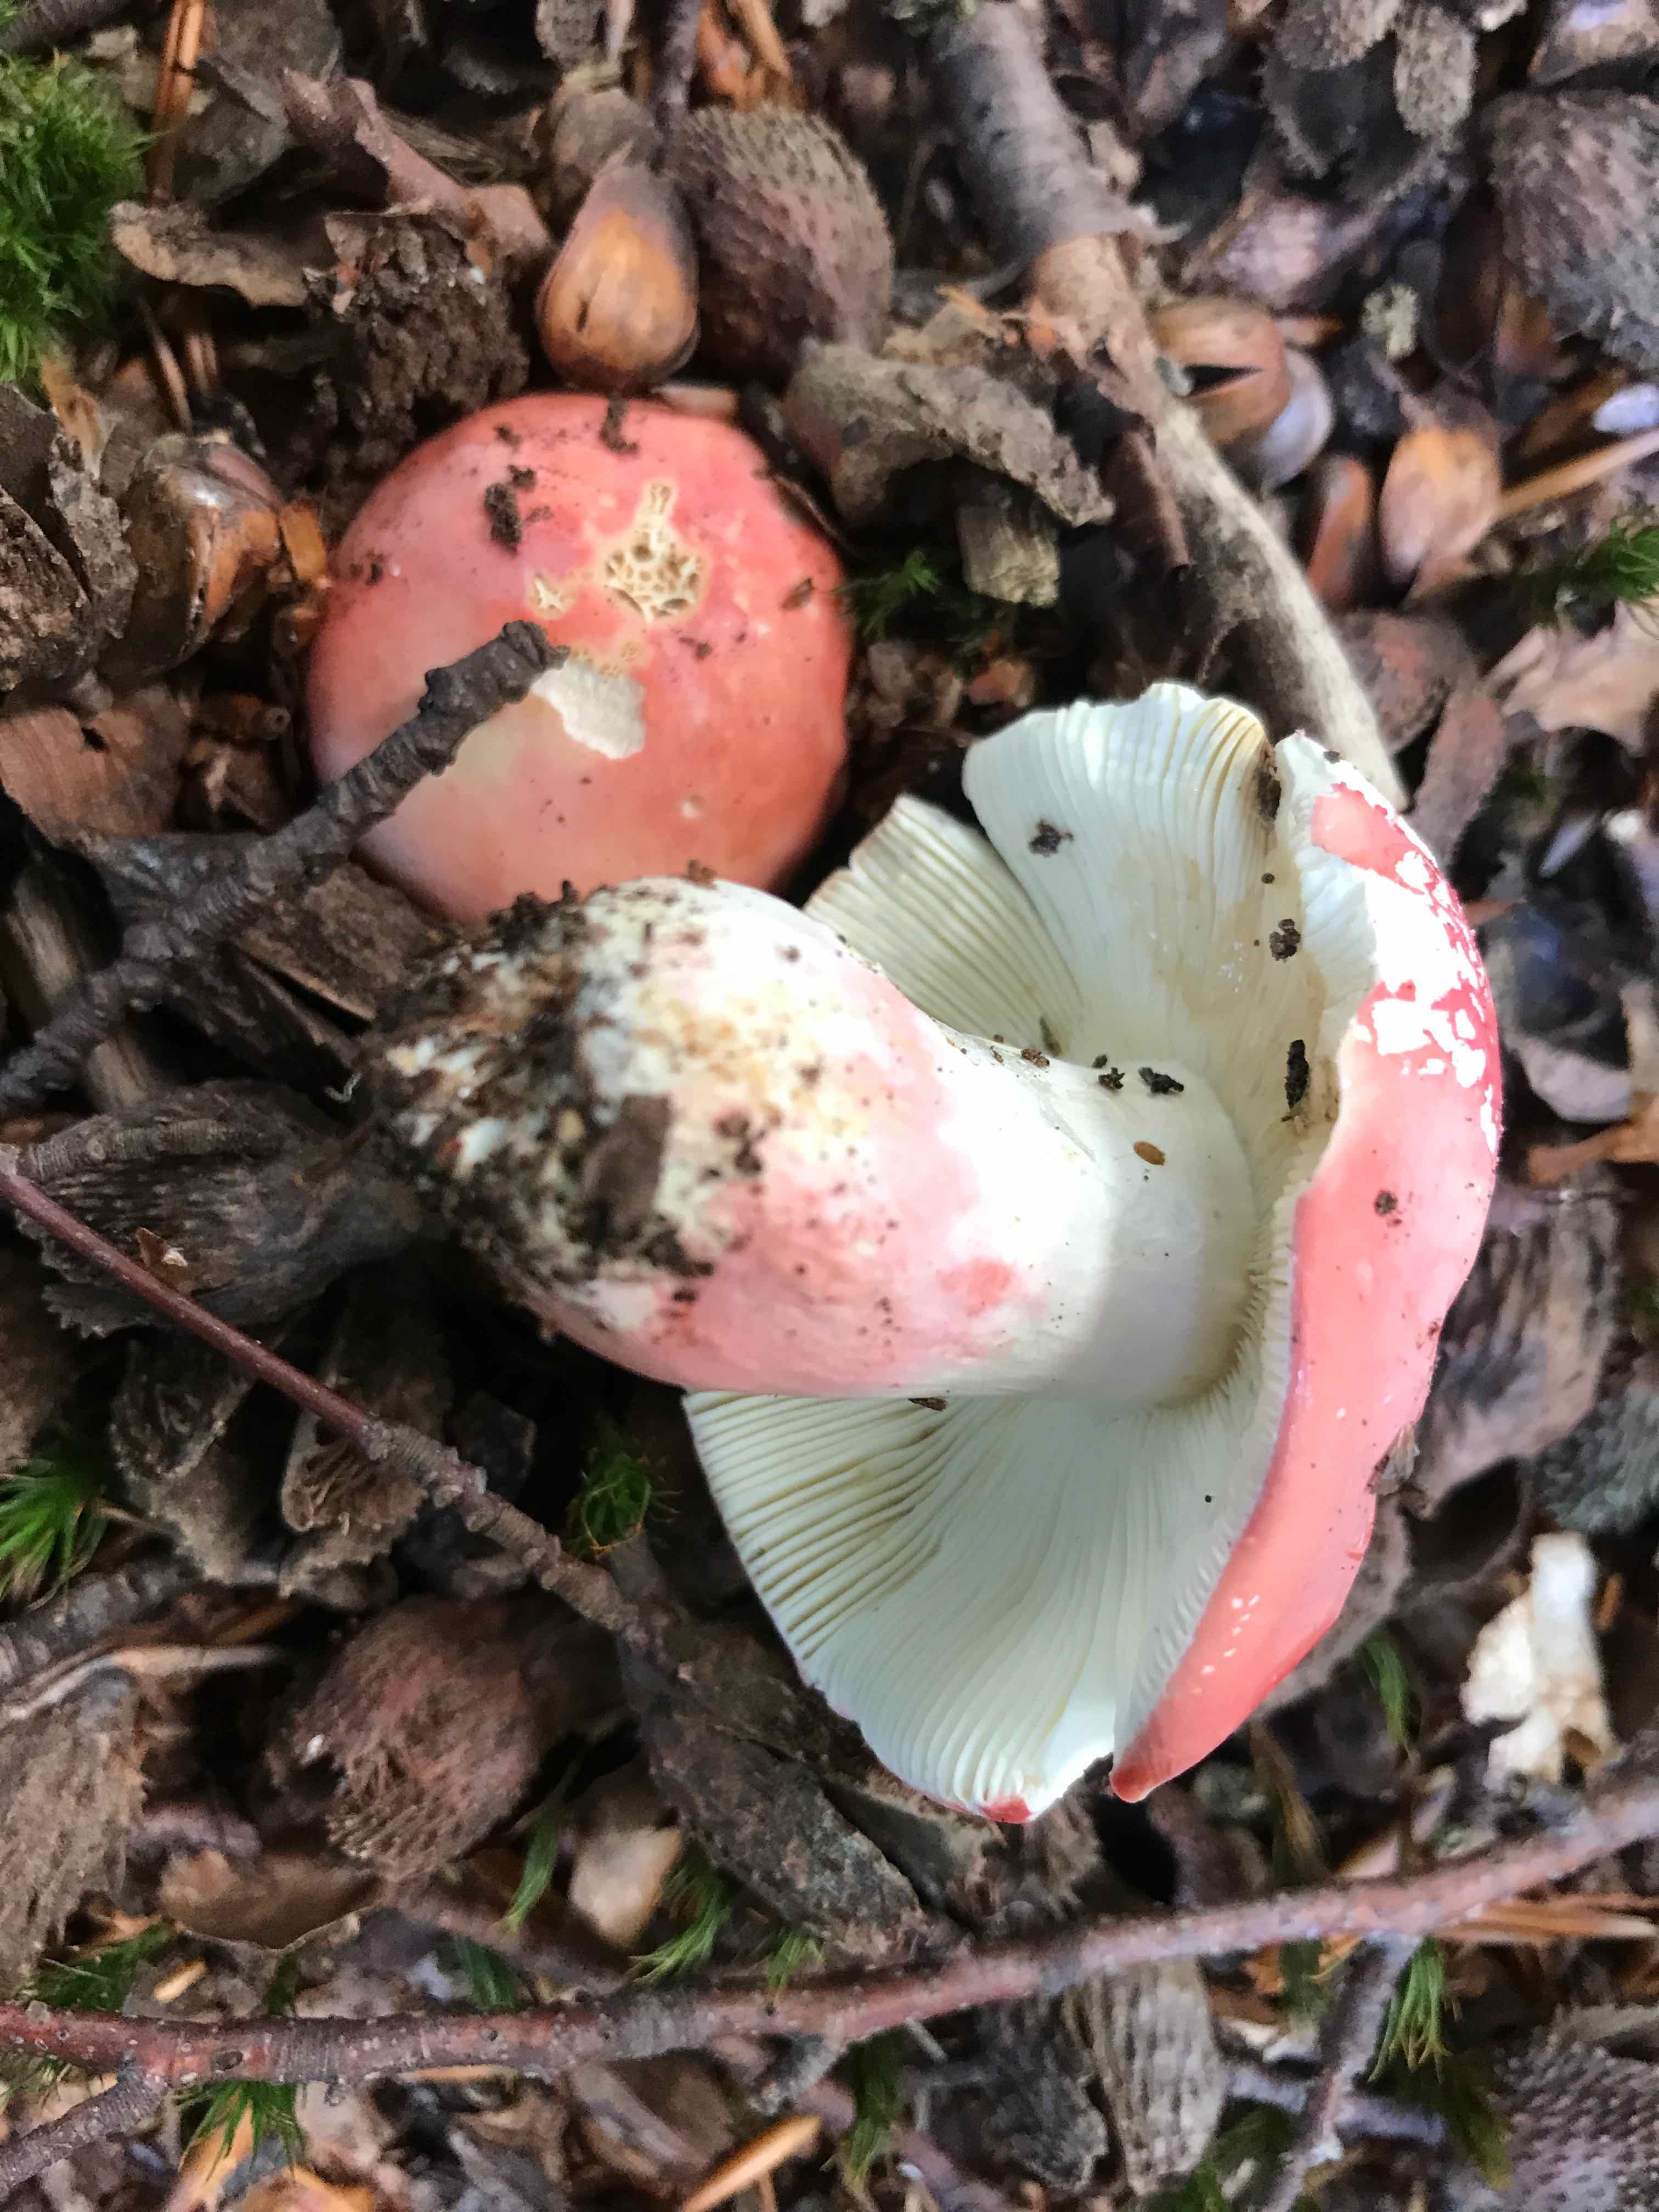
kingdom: Fungi
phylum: Basidiomycota
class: Agaricomycetes
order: Russulales
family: Russulaceae
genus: Russula
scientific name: Russula rosea
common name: fastkødet skørhat
